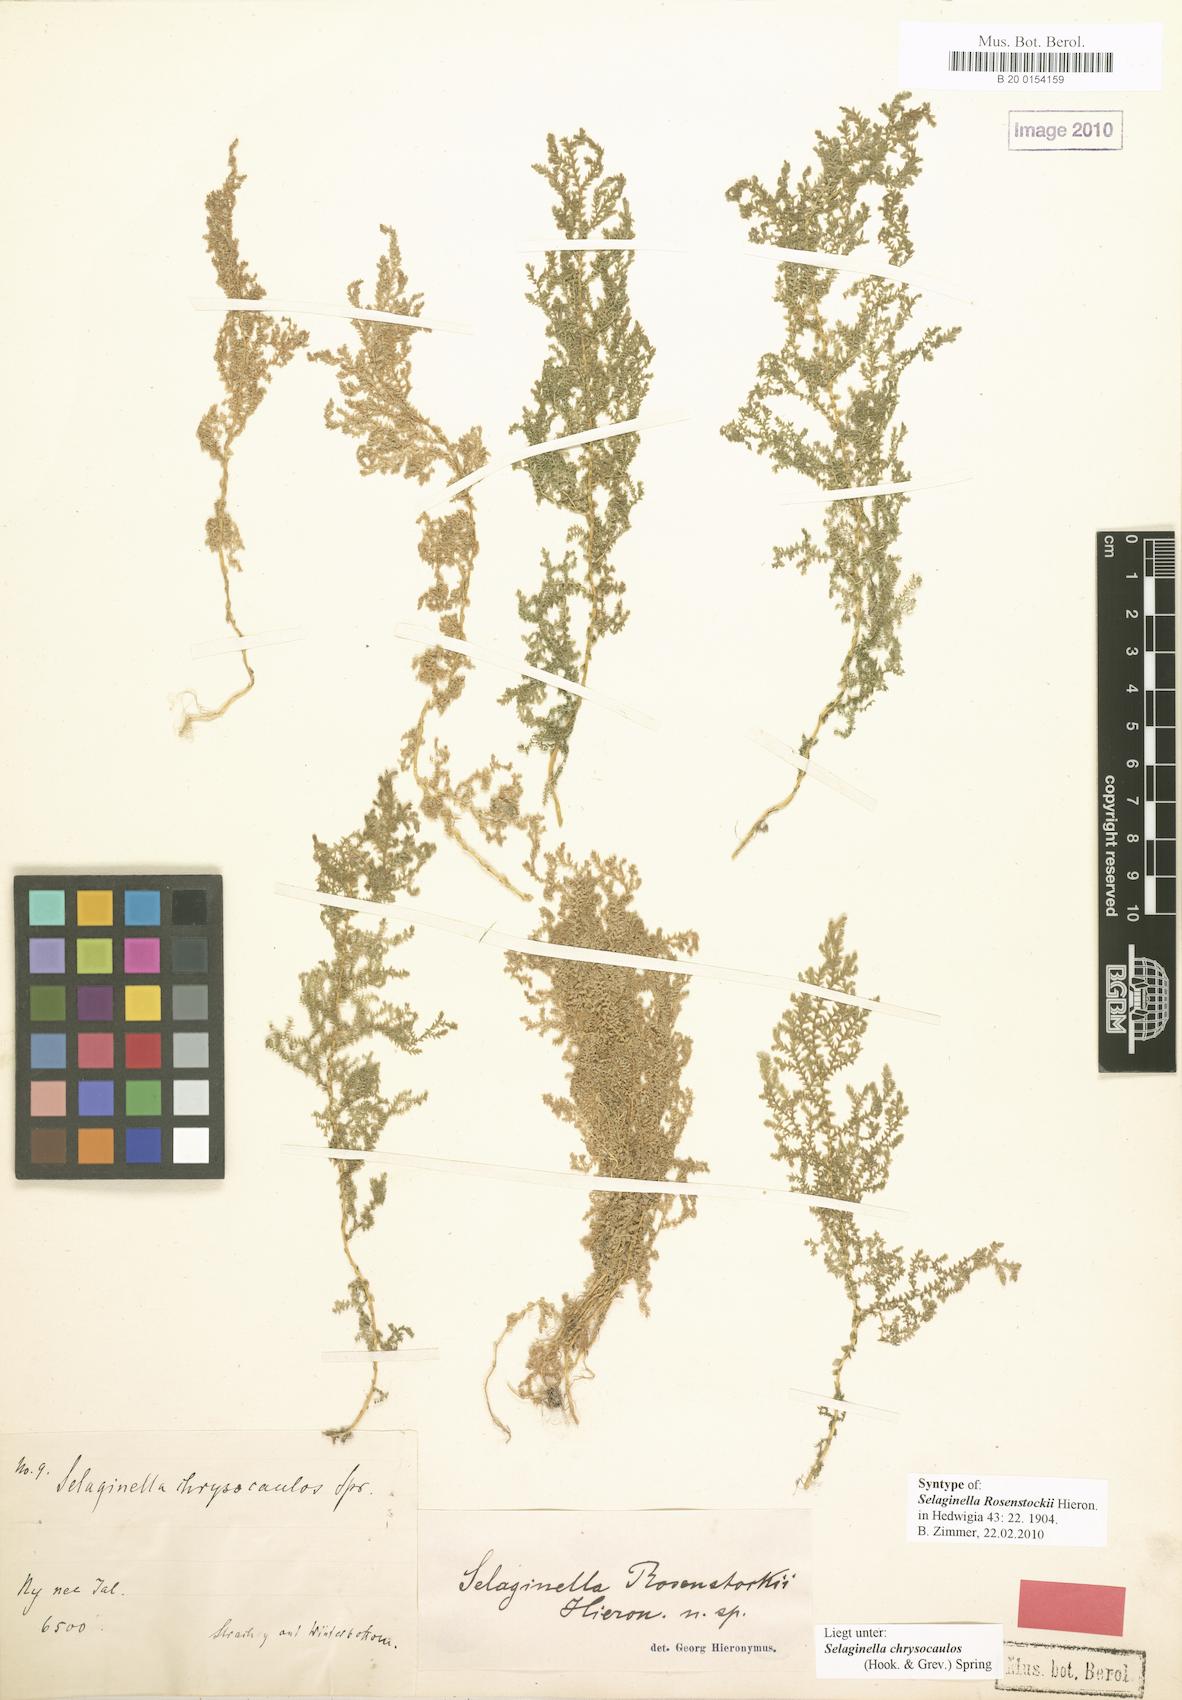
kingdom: Plantae
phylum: Tracheophyta
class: Lycopodiopsida
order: Selaginellales
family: Selaginellaceae
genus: Selaginella
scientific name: Selaginella chrysocaulos
